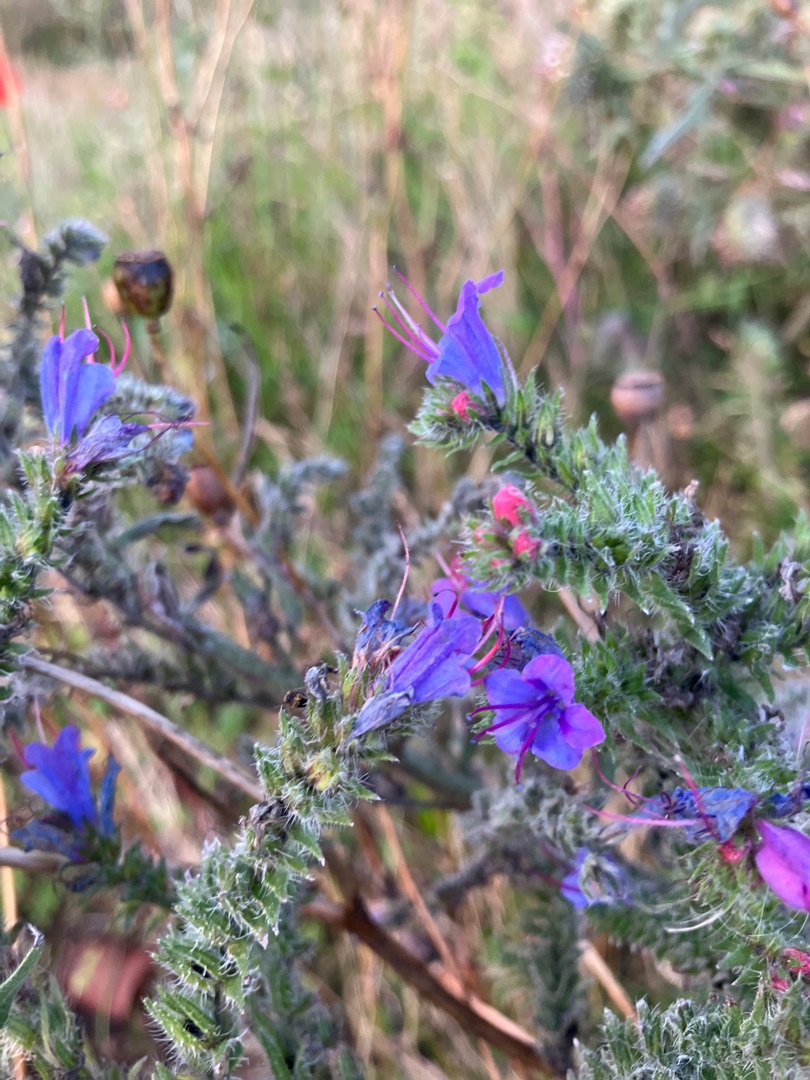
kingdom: Plantae
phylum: Tracheophyta
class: Magnoliopsida
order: Boraginales
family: Boraginaceae
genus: Echium
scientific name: Echium vulgare
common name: Slangehoved
